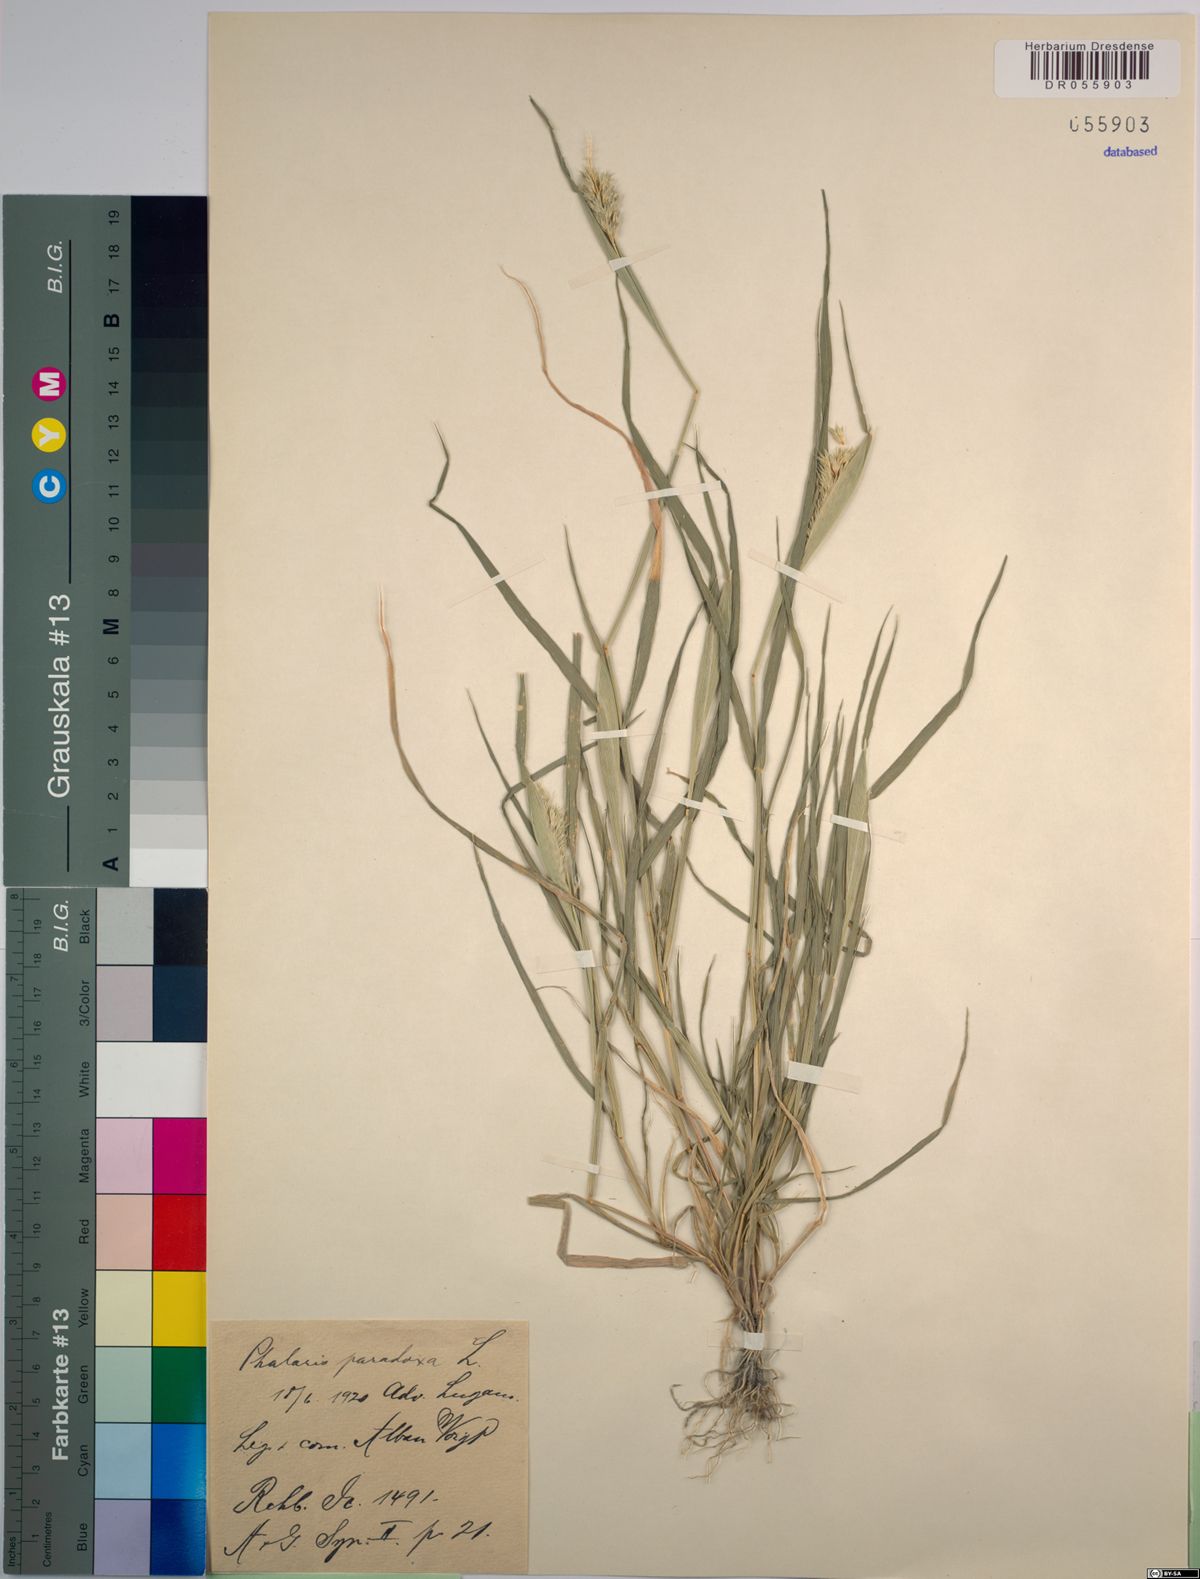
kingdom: Plantae
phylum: Tracheophyta
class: Liliopsida
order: Poales
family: Poaceae
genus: Phalaris
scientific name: Phalaris paradoxa
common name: Awned canary-grass
